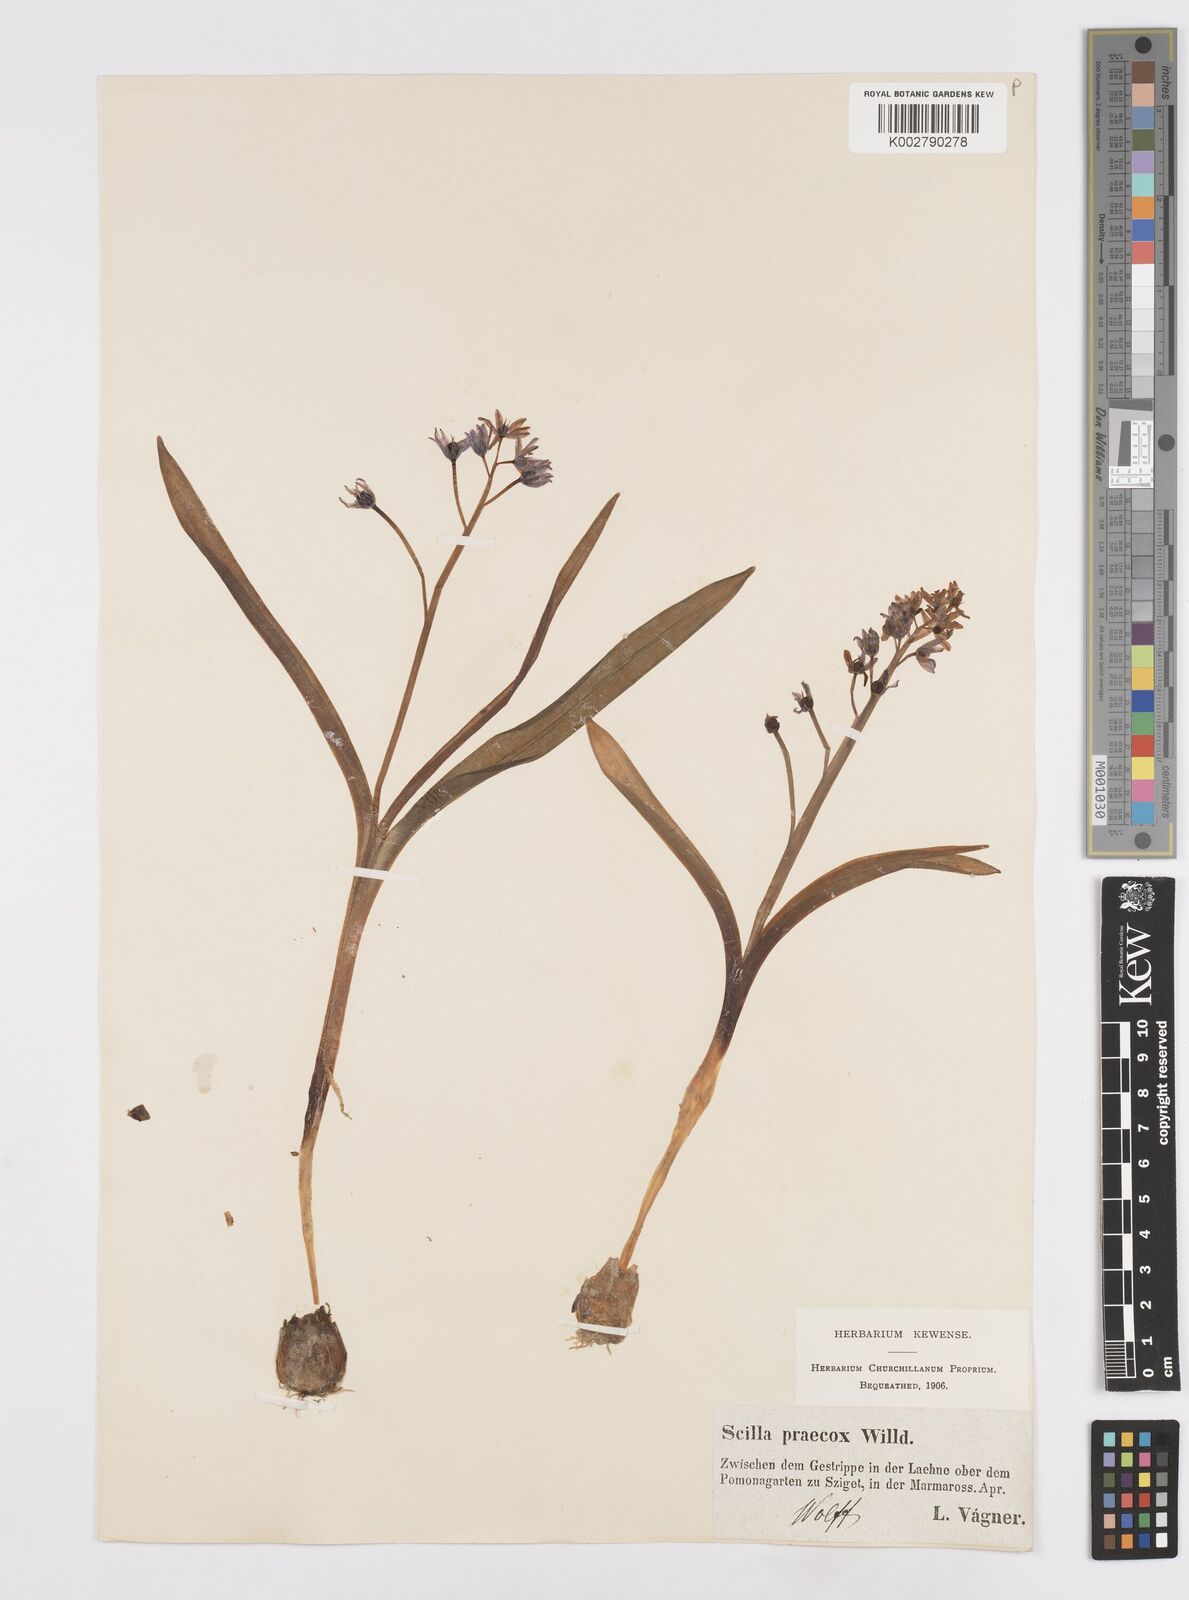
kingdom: Plantae
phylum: Tracheophyta
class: Liliopsida
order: Asparagales
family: Asparagaceae
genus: Scilla
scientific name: Scilla bifolia
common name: Alpine squill
